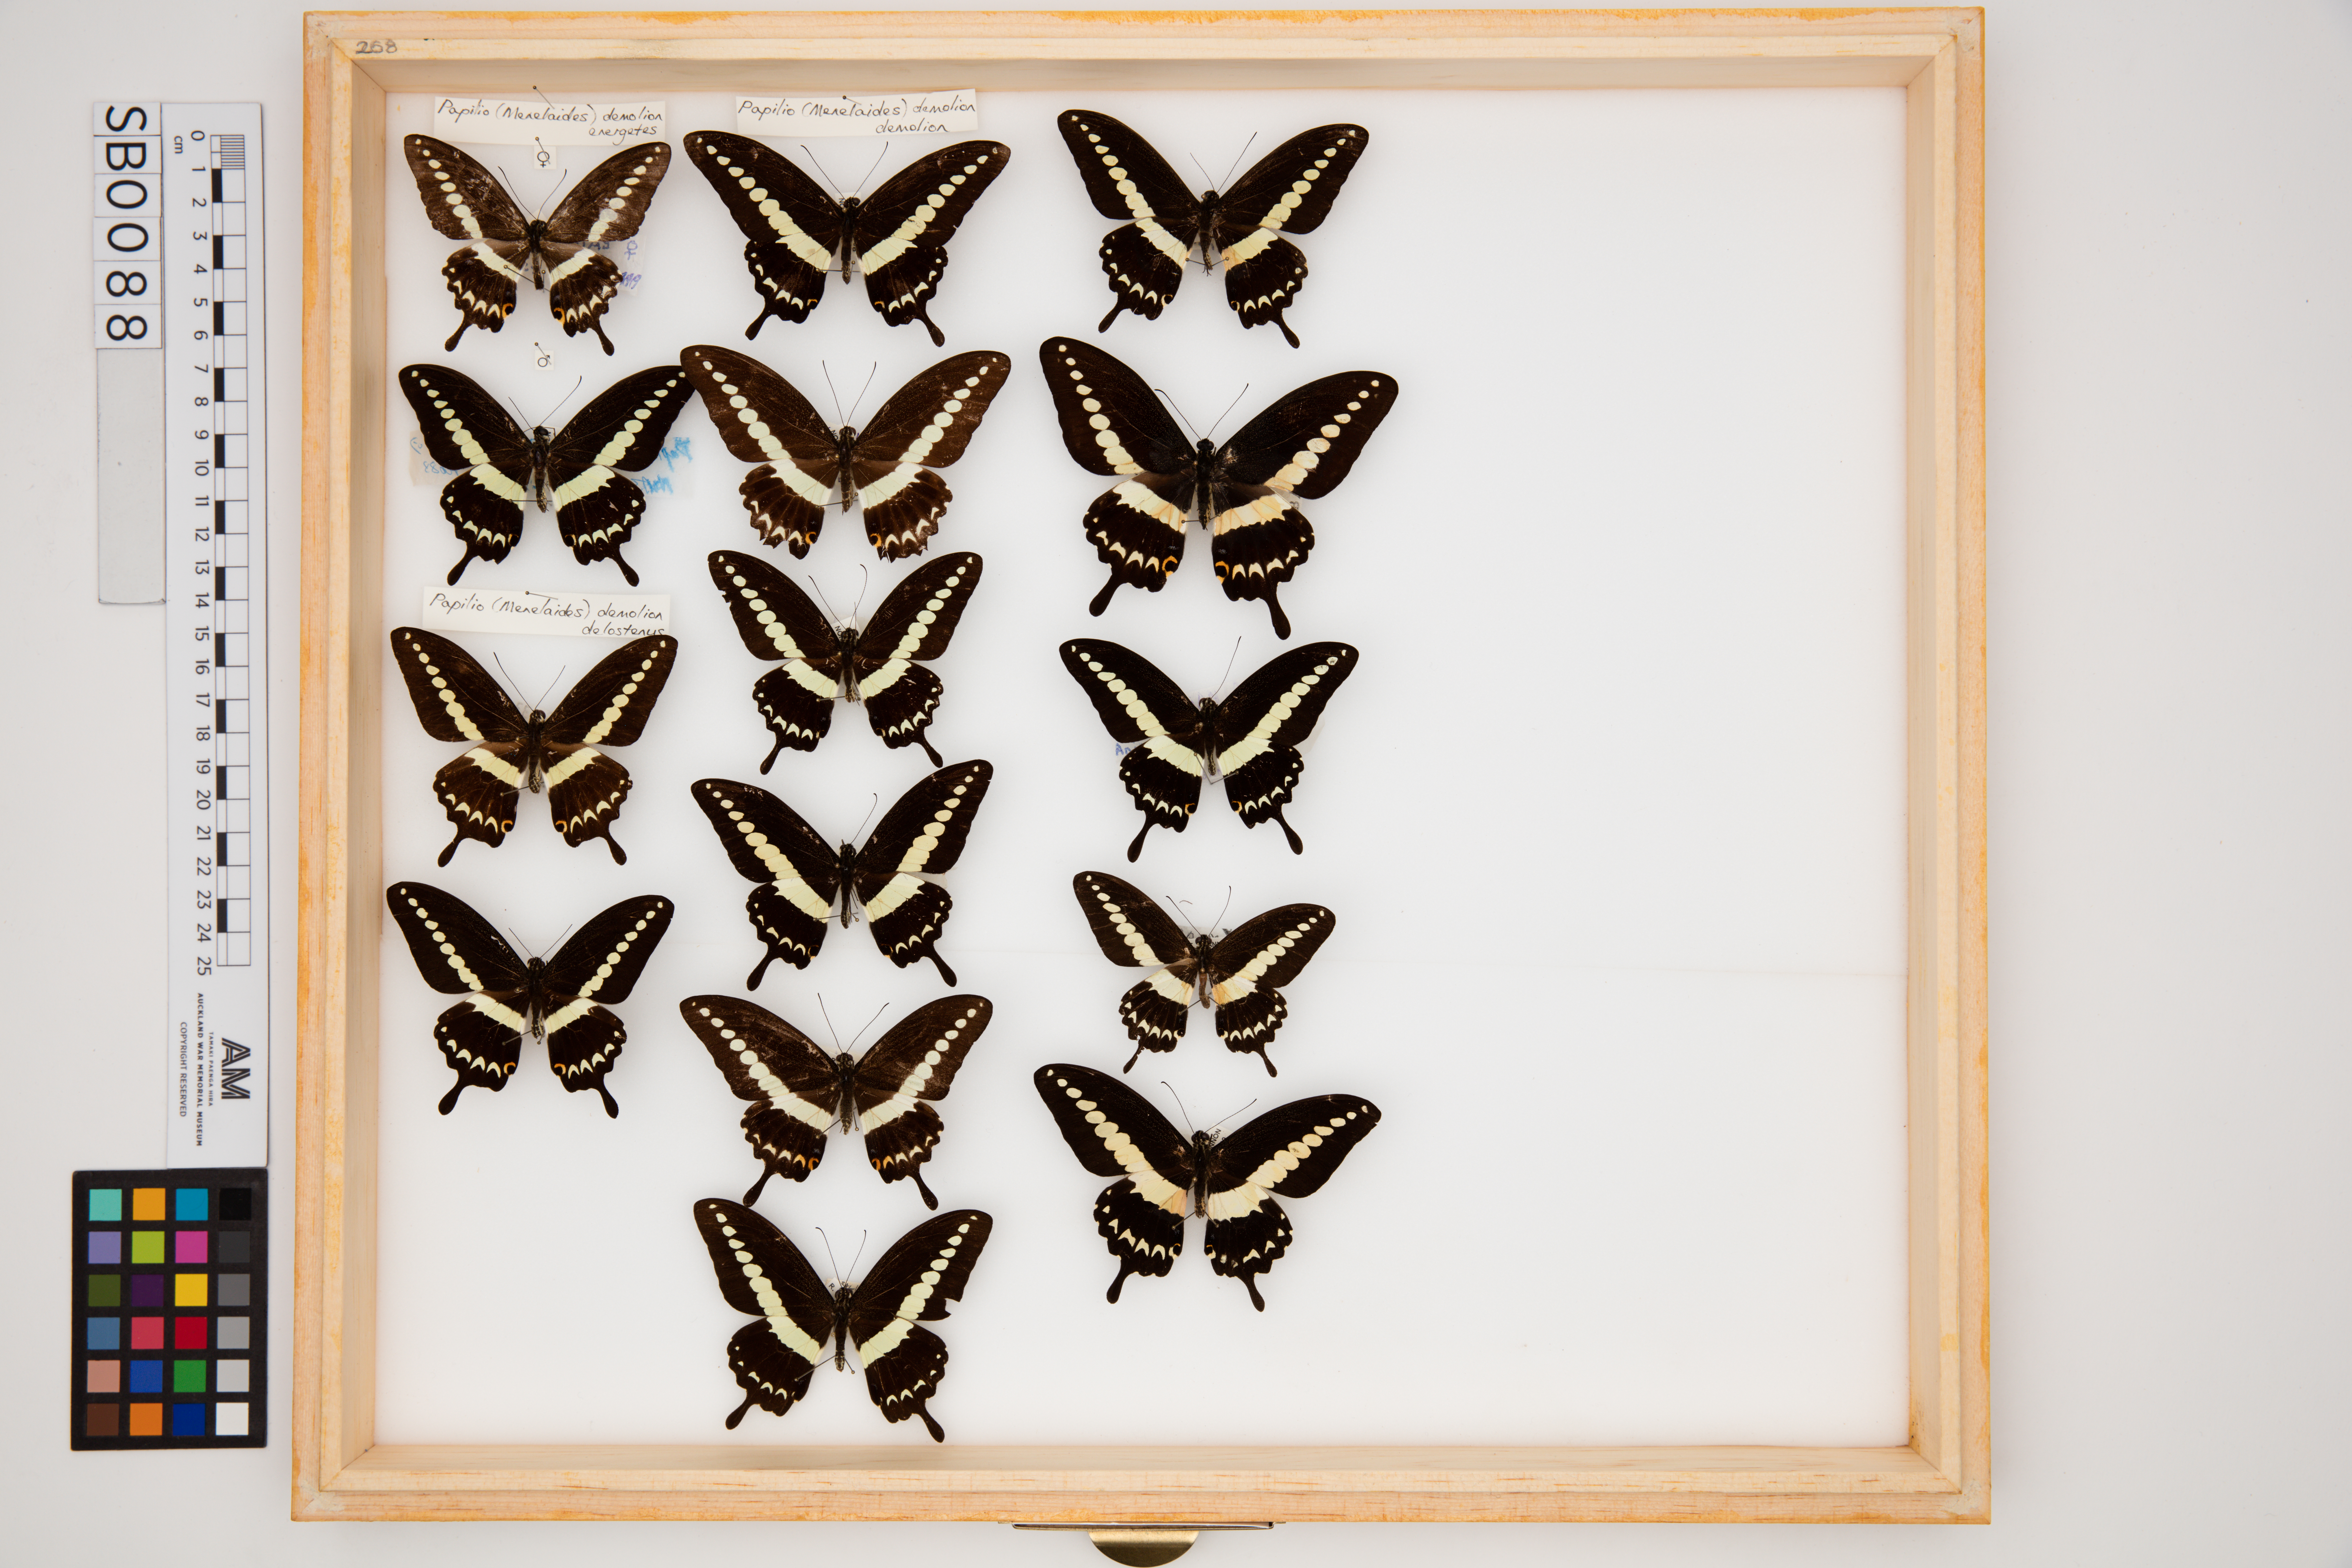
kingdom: Animalia
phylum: Arthropoda
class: Insecta
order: Lepidoptera
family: Papilionidae
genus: Papilio
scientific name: Papilio demolion
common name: Banded swallowtail
